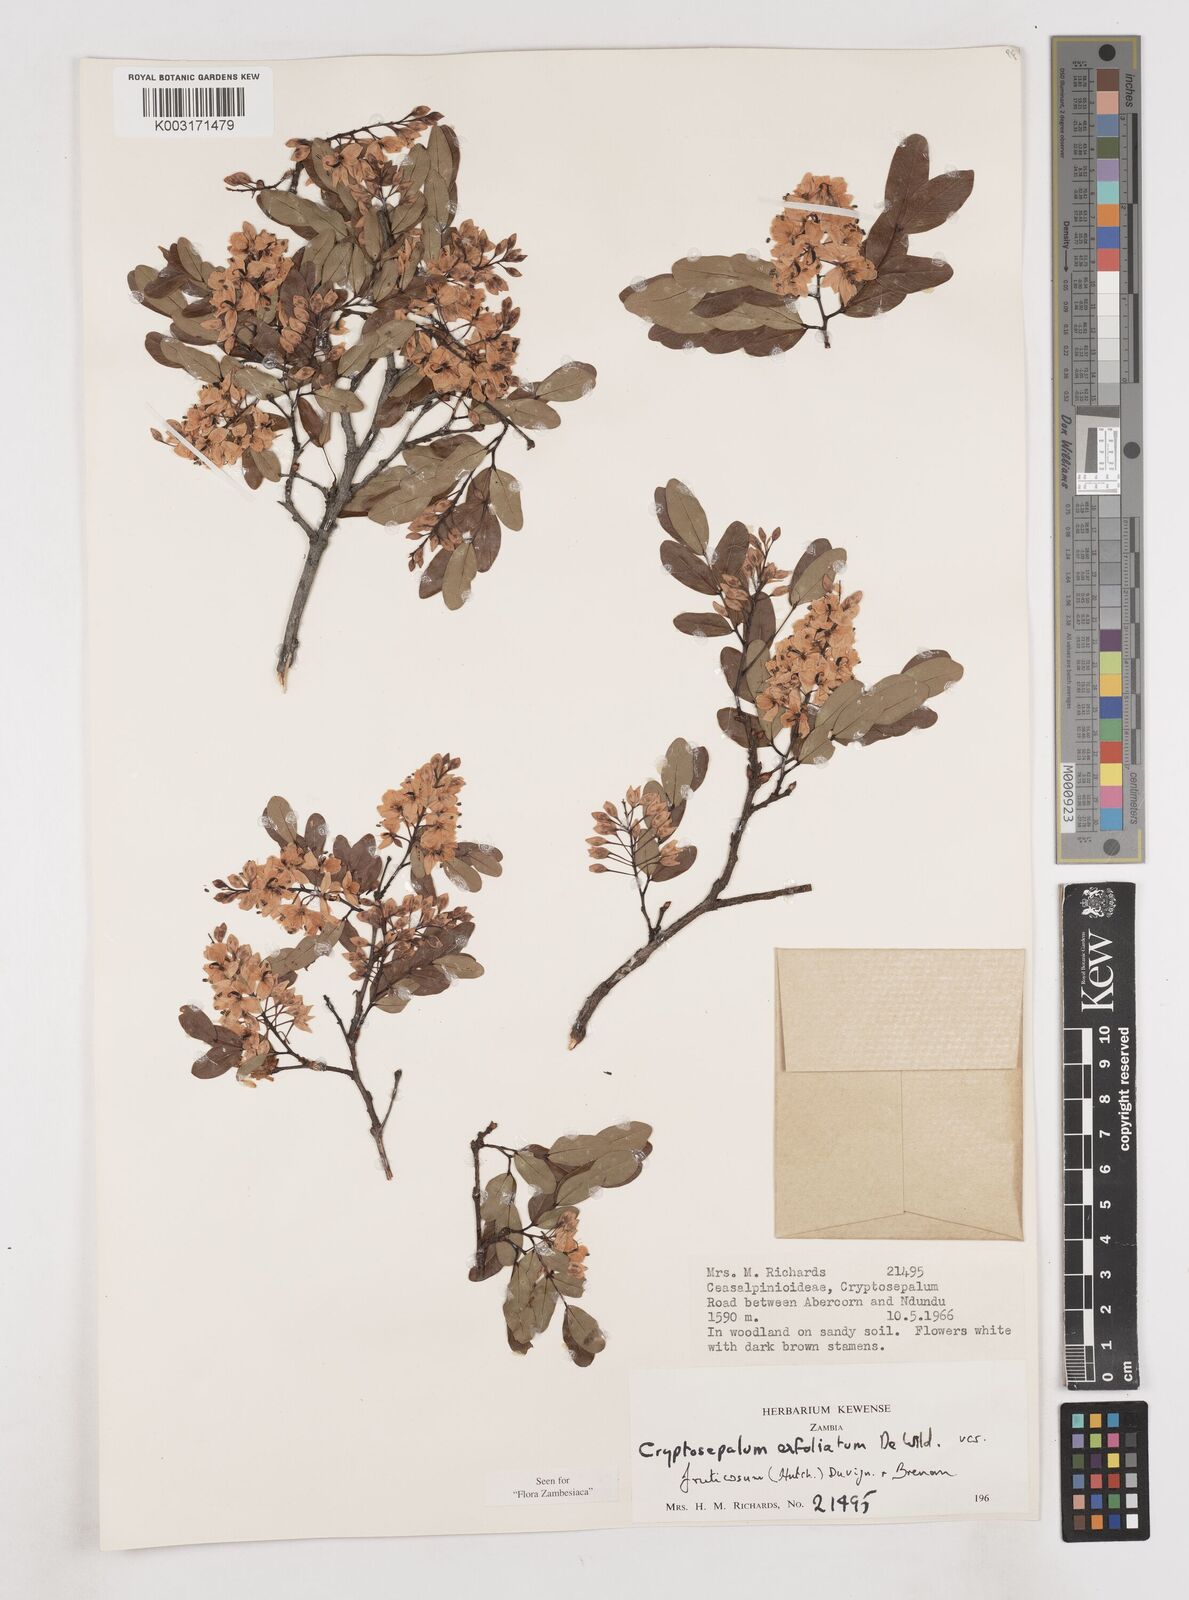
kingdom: Plantae
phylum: Tracheophyta
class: Magnoliopsida
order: Fabales
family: Fabaceae
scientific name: Fabaceae
